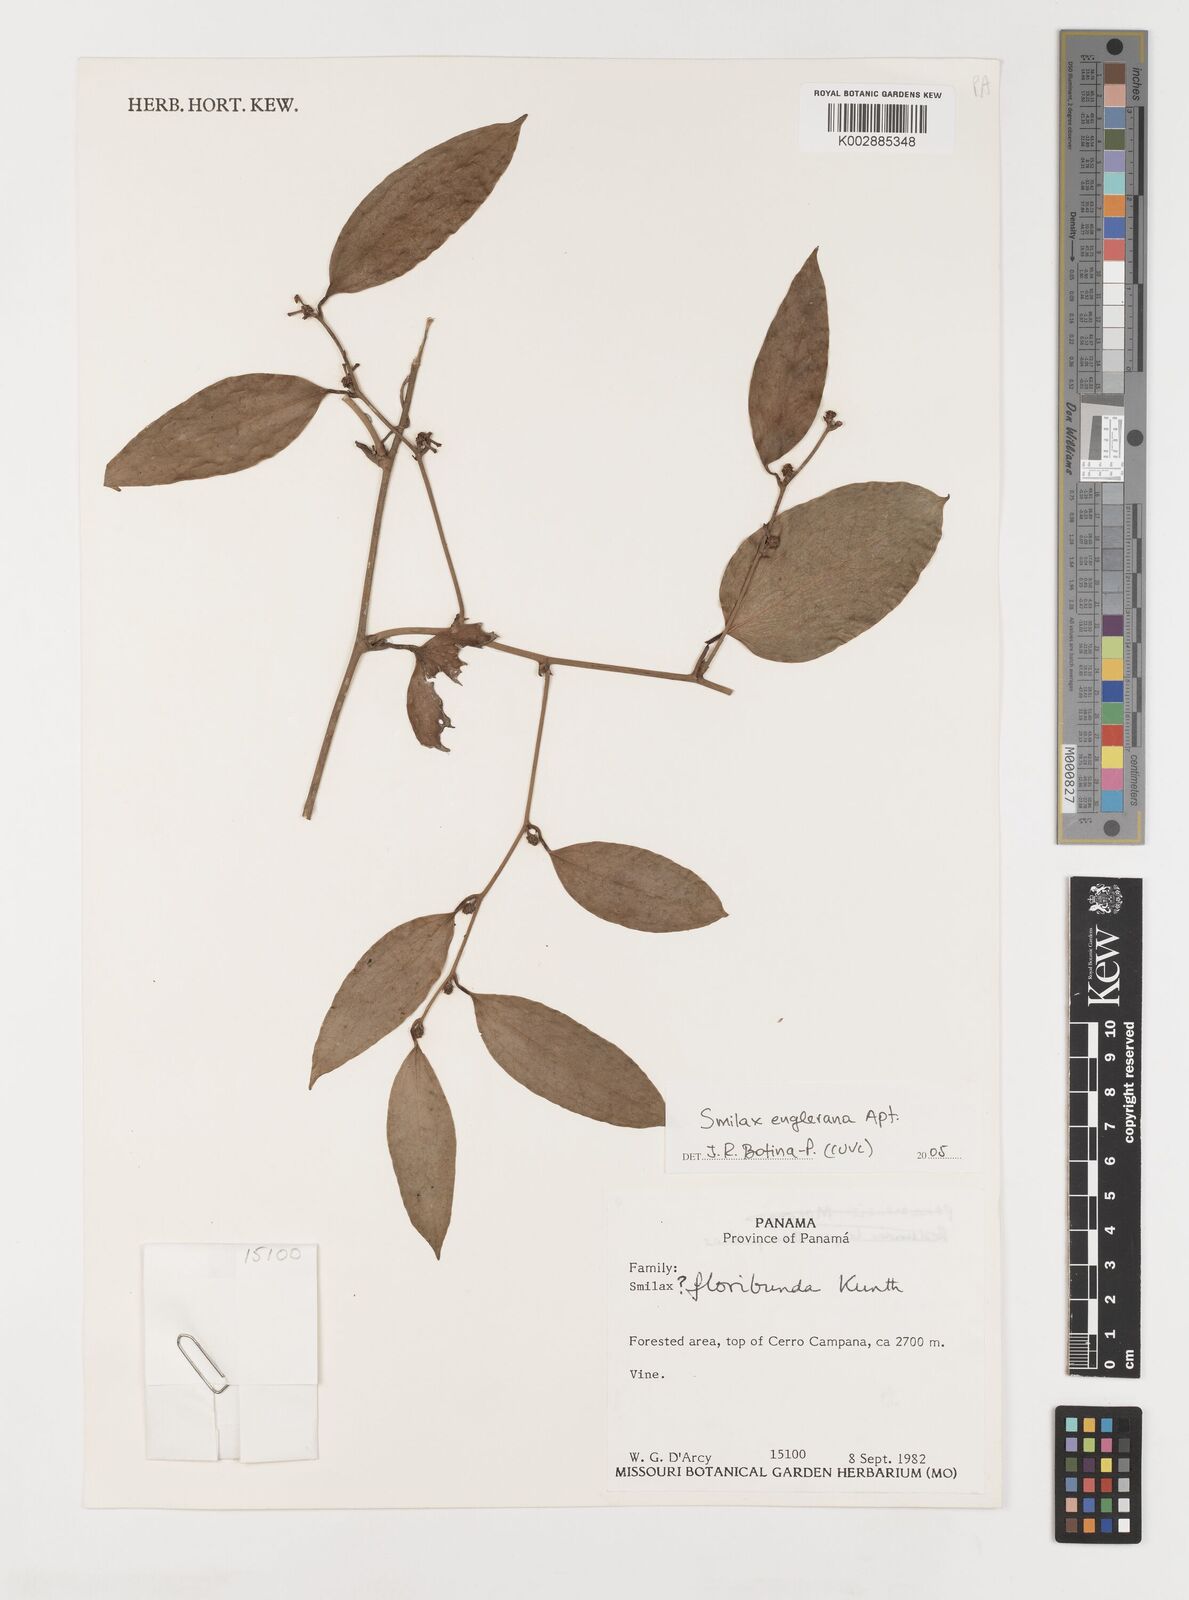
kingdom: Plantae
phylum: Tracheophyta
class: Liliopsida
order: Liliales
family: Smilacaceae
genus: Smilax
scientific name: Smilax domingensis
